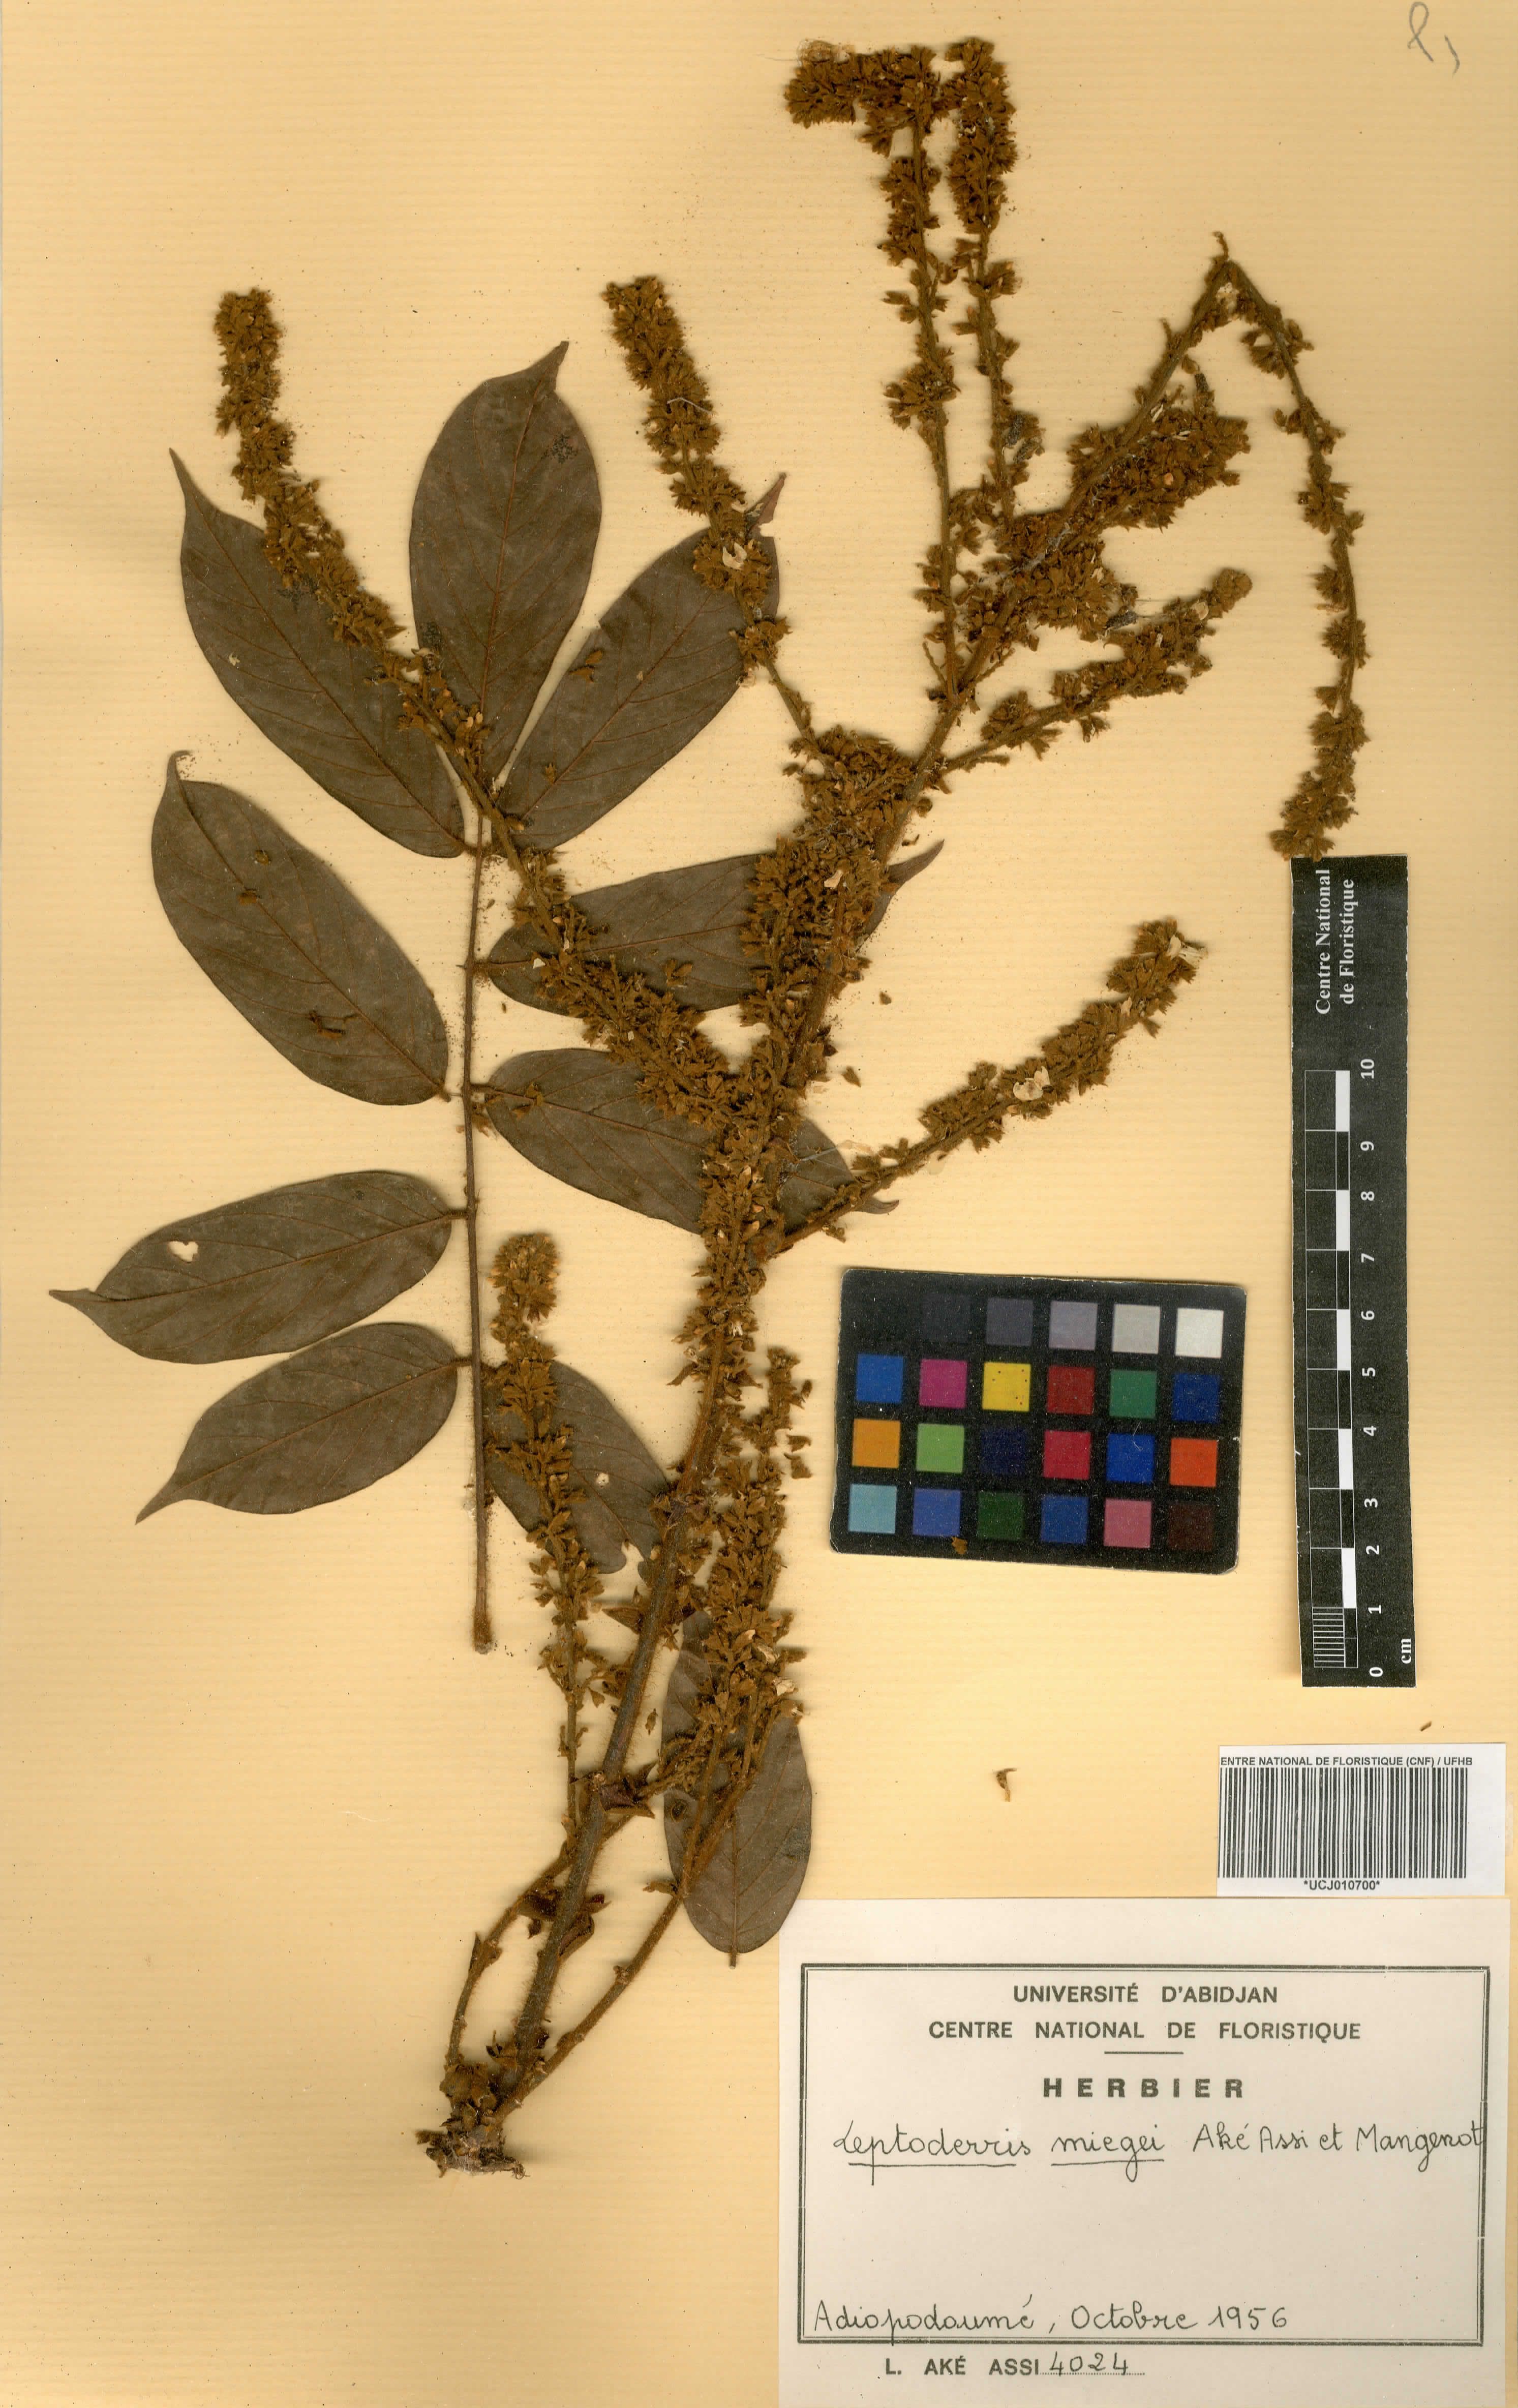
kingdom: Plantae
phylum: Tracheophyta
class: Magnoliopsida
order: Fabales
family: Fabaceae
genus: Leptoderris
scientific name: Leptoderris miegei
